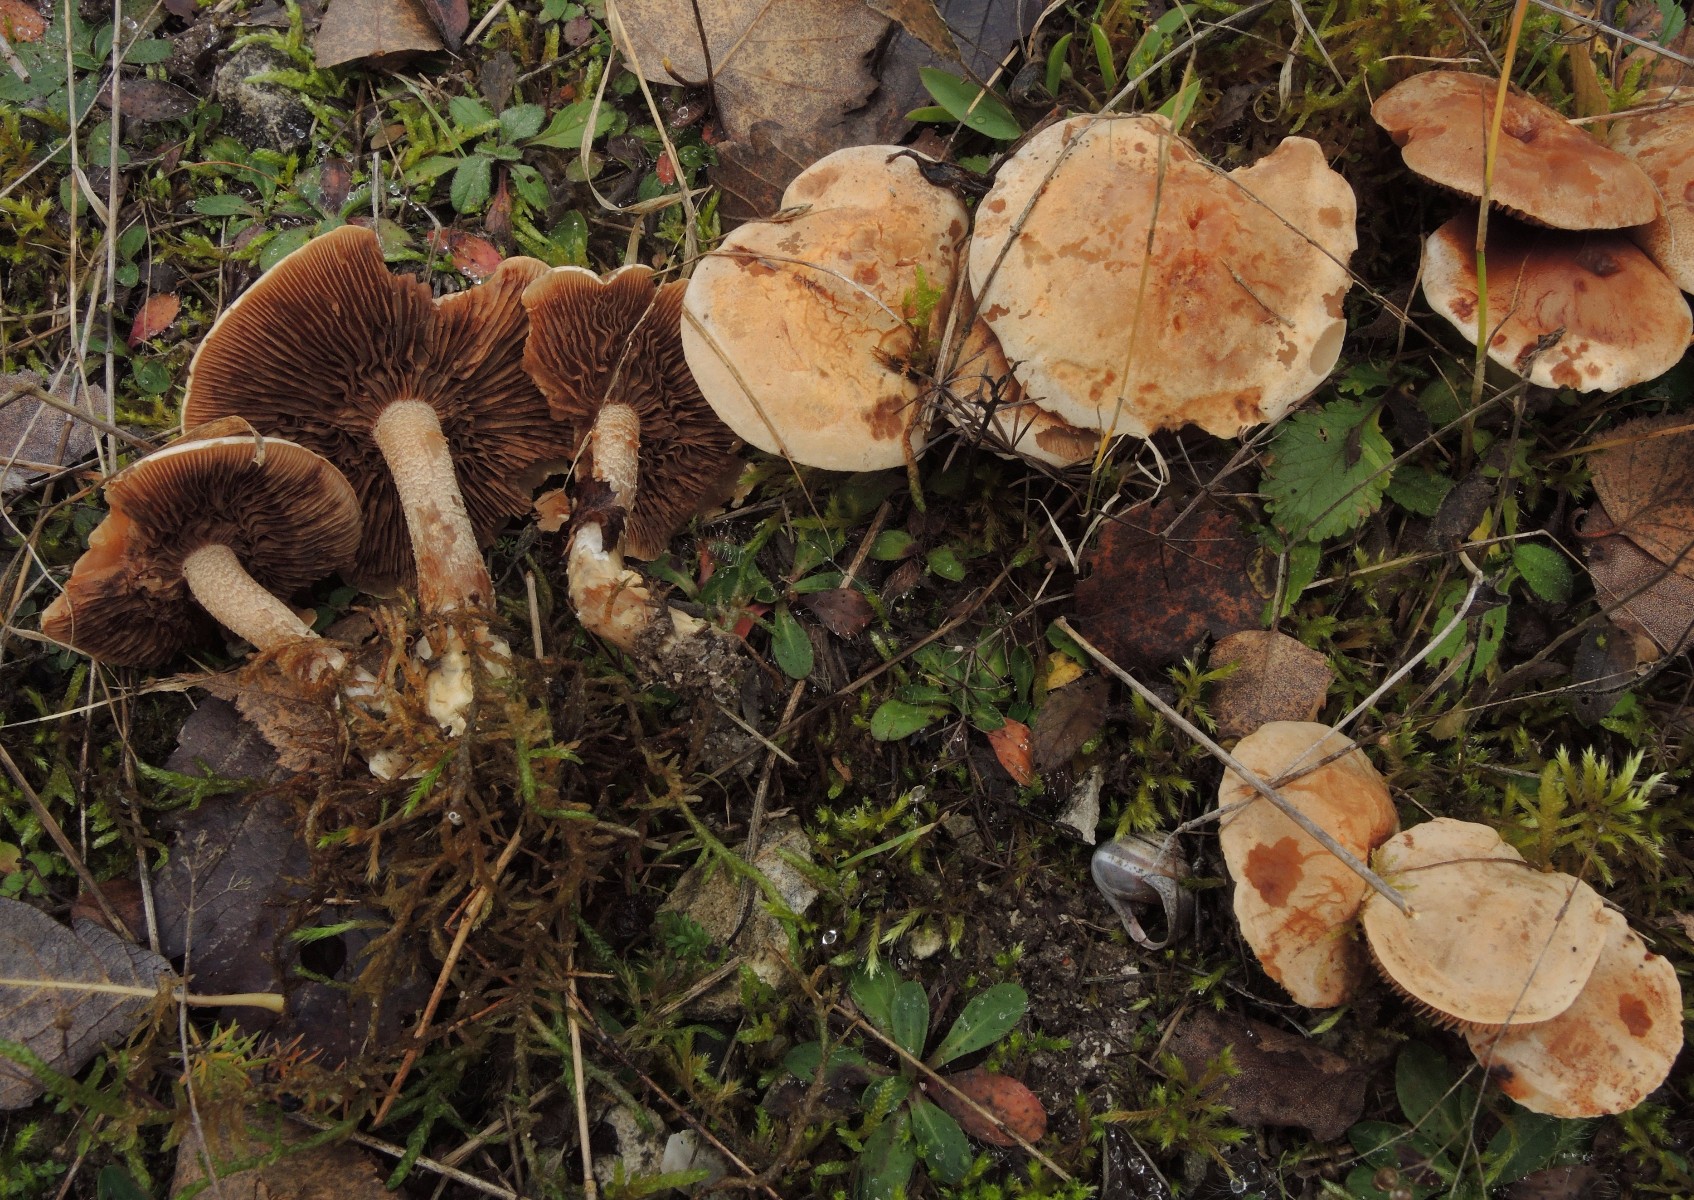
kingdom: Fungi
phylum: Basidiomycota
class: Agaricomycetes
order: Agaricales
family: Hymenogastraceae
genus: Hebeloma
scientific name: Hebeloma laterinum
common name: kakao-tåreblad
